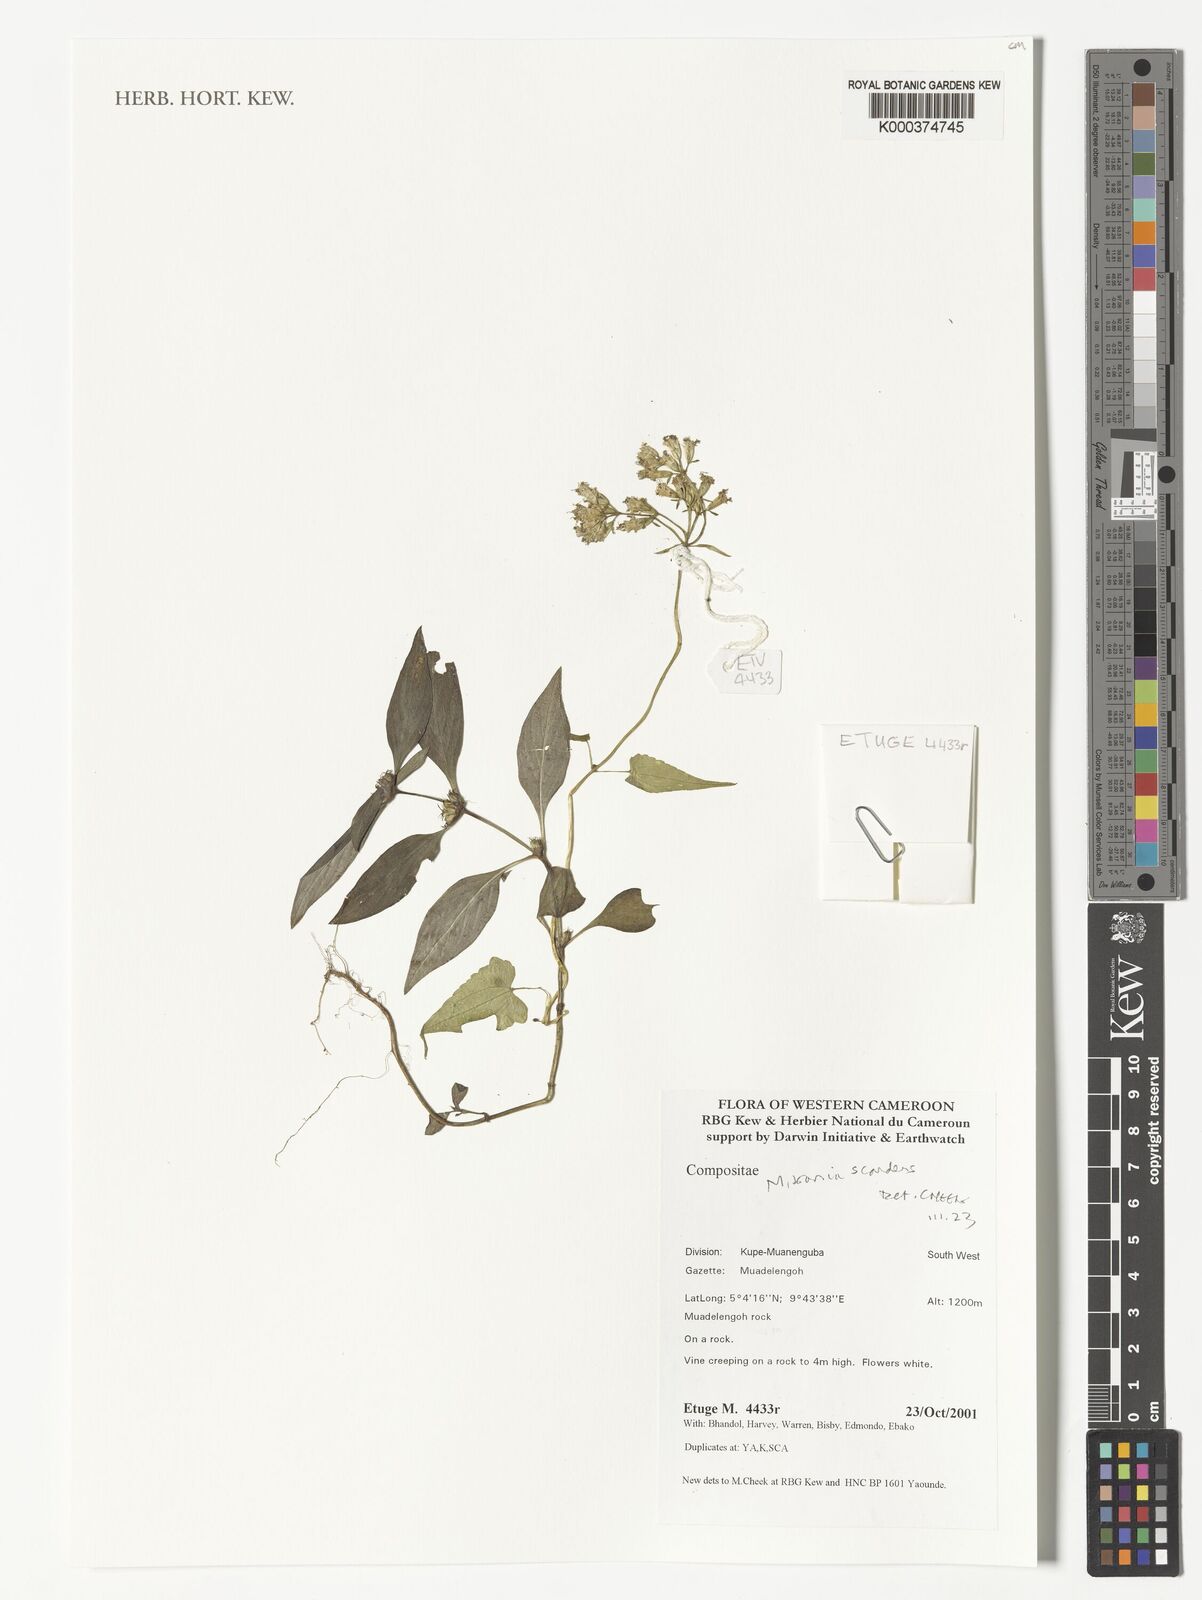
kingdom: Plantae
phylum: Tracheophyta
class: Magnoliopsida
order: Asterales
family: Asteraceae
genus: Mikania
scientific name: Mikania scandens
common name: Climbing hempvine
